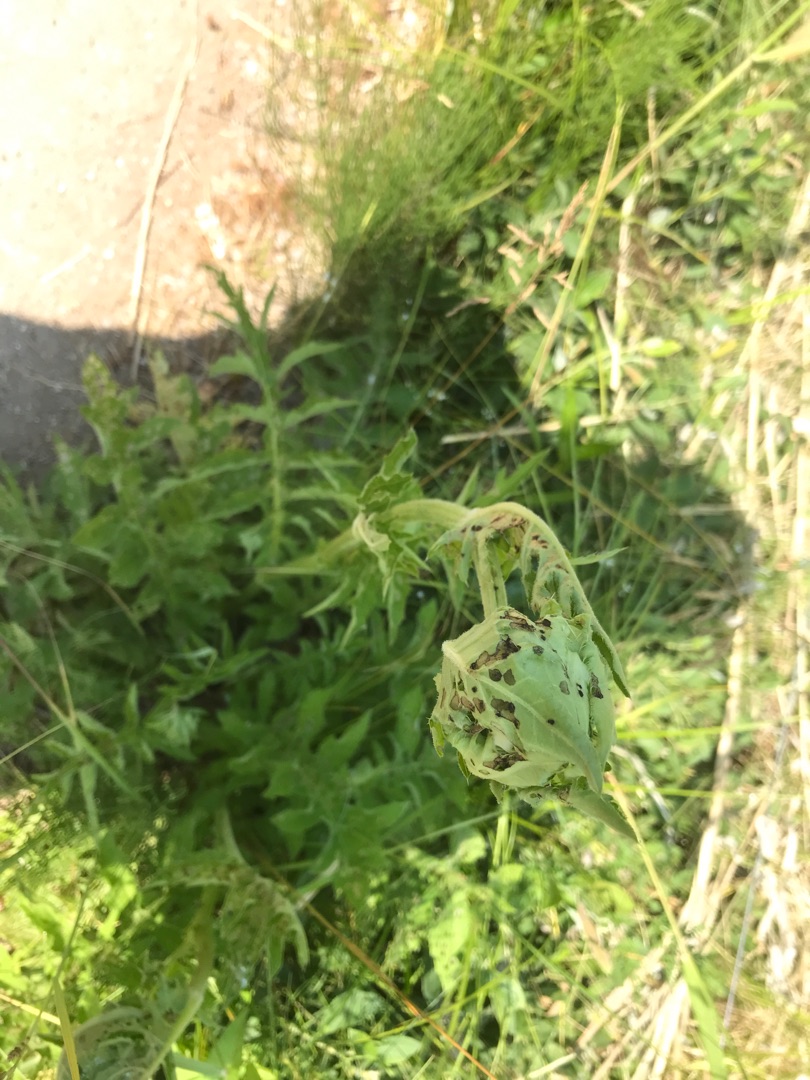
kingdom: Plantae
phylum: Tracheophyta
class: Magnoliopsida
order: Asterales
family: Asteraceae
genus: Cirsium
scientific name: Cirsium oleraceum
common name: Kål-tidsel
